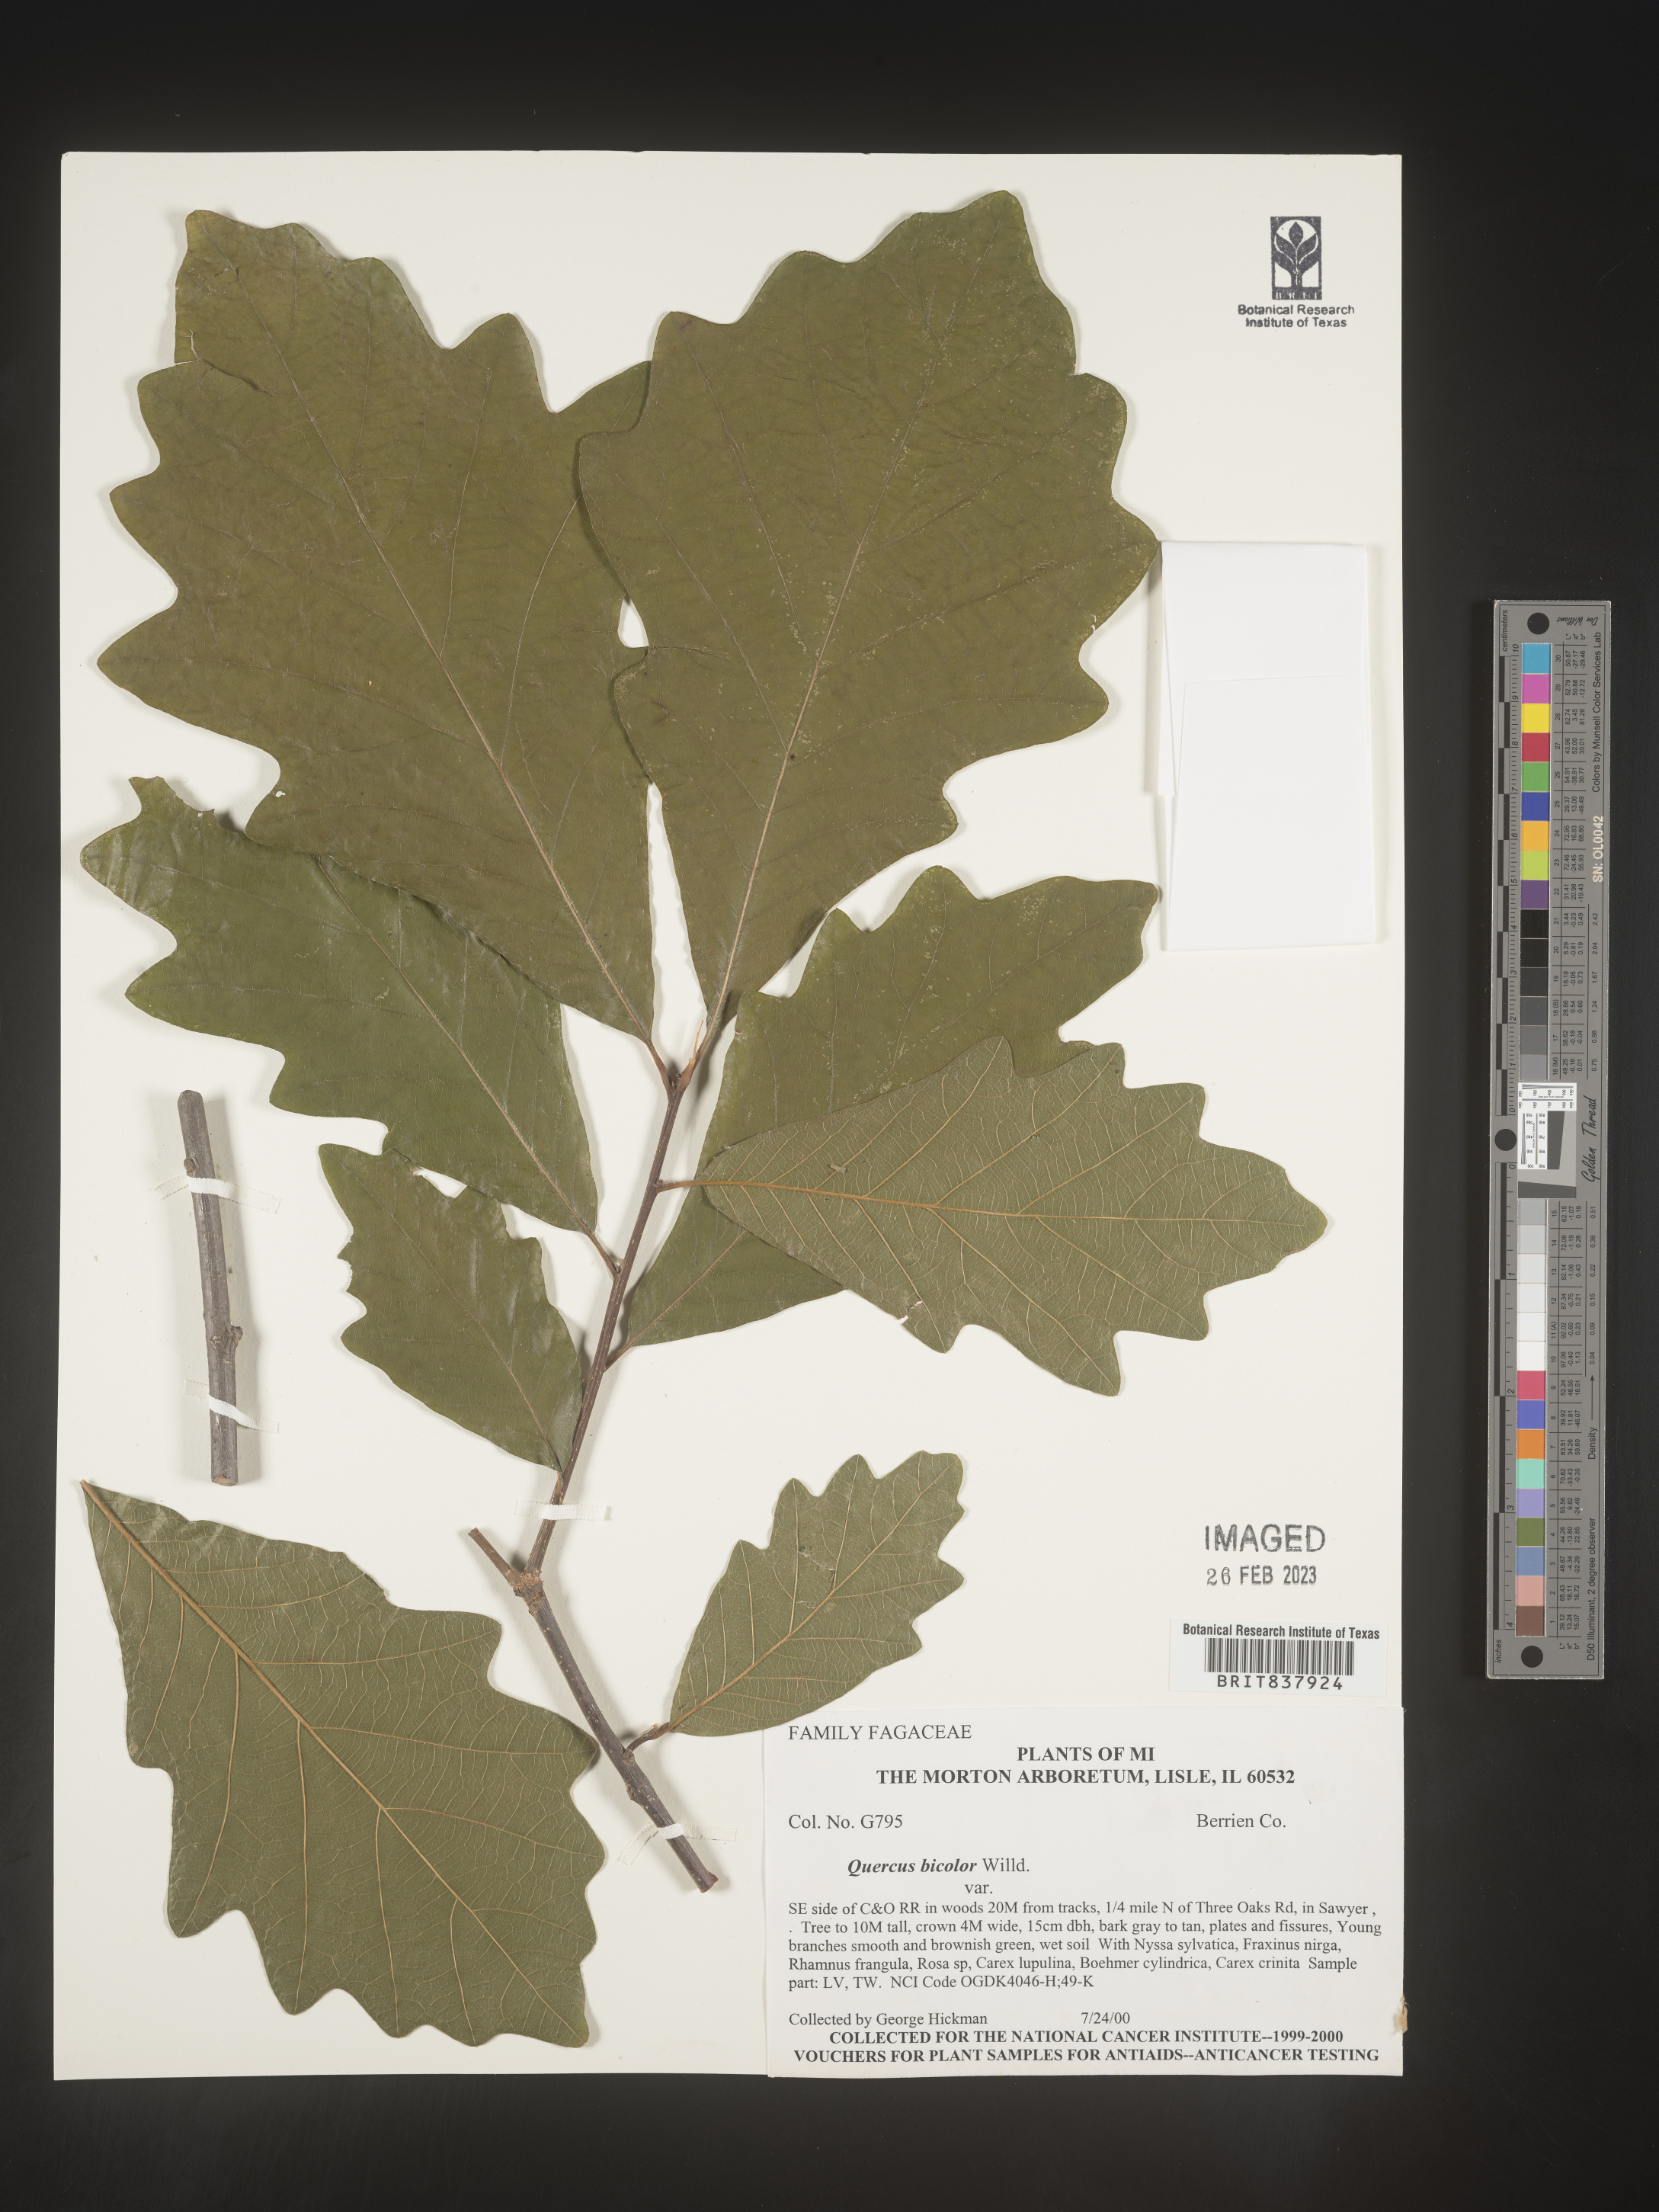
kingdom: Plantae
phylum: Tracheophyta
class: Magnoliopsida
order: Fagales
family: Fagaceae
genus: Quercus
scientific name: Quercus bicolor
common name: Swamp white oak
